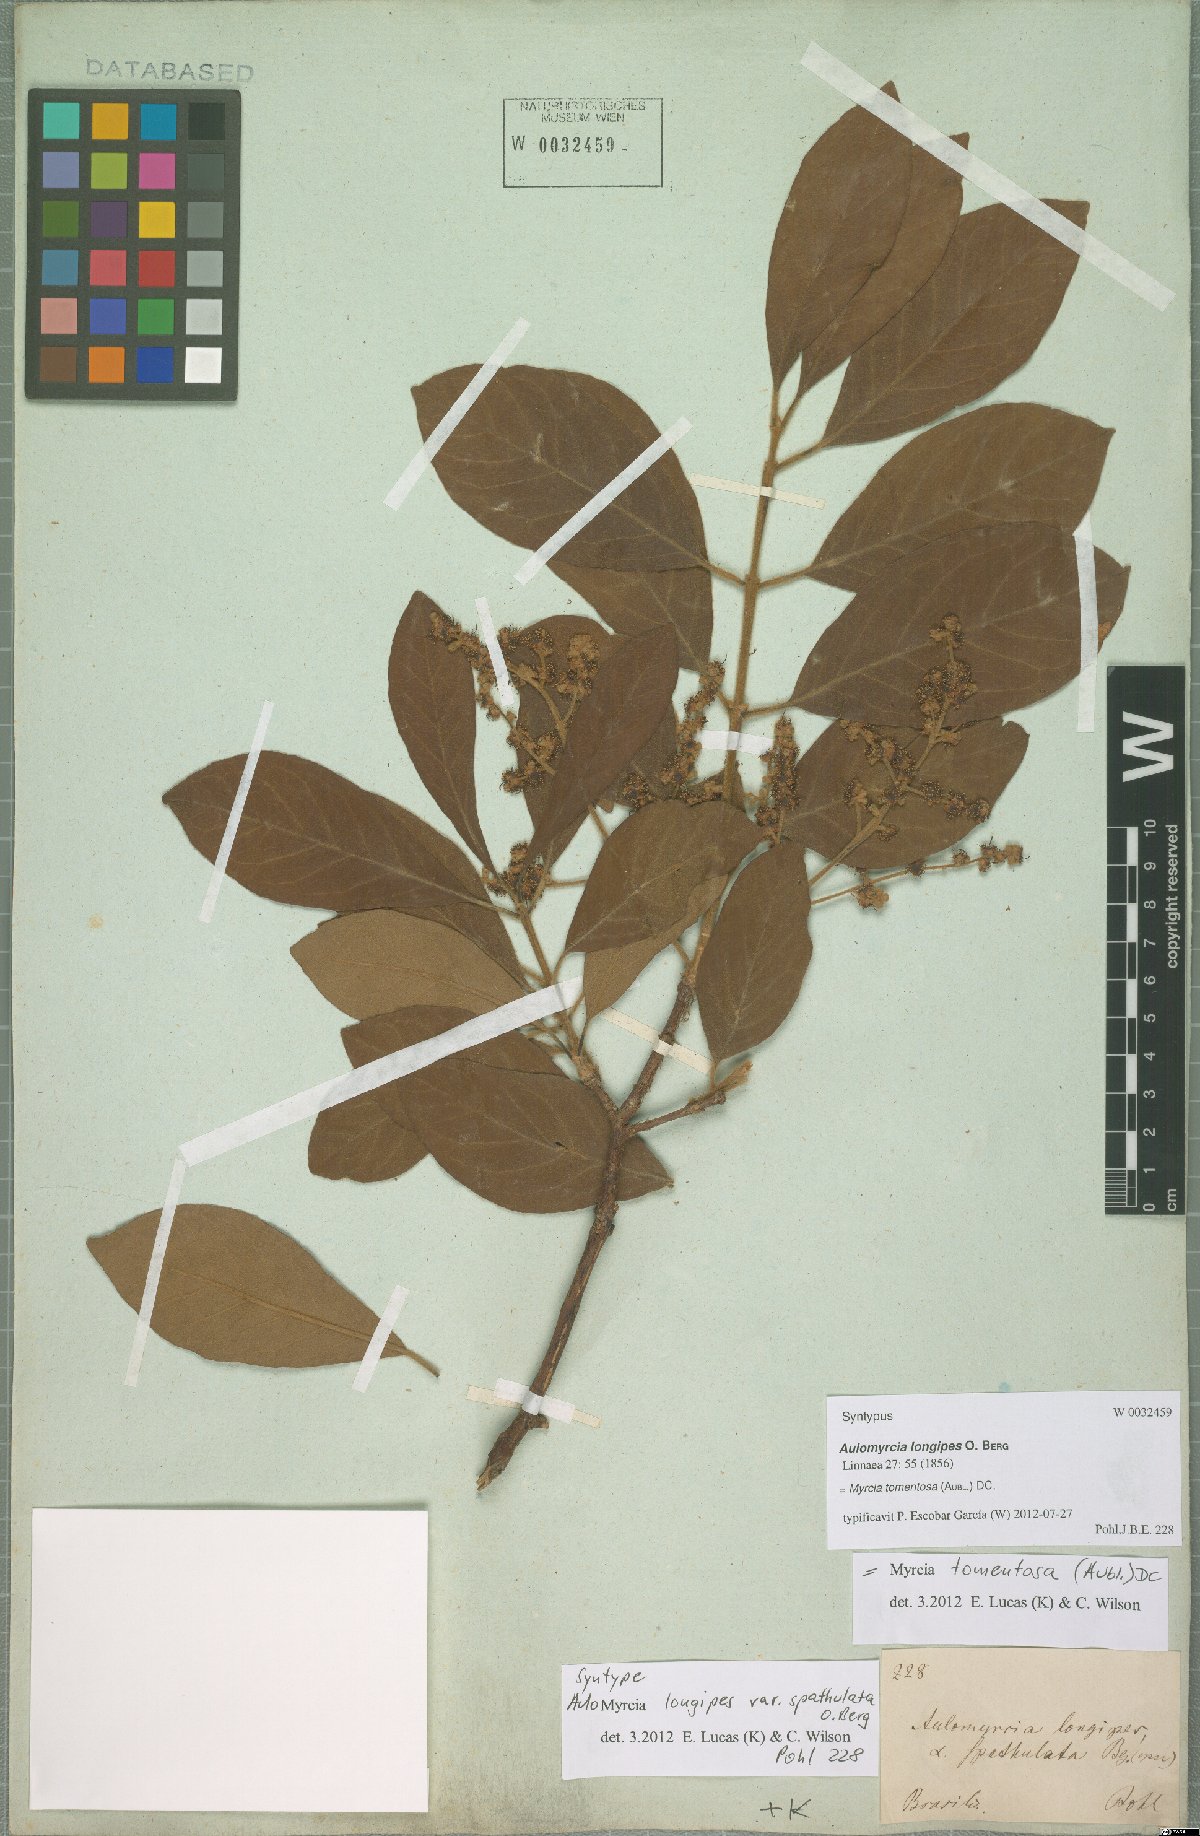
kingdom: Plantae
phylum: Tracheophyta
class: Magnoliopsida
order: Myrtales
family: Myrtaceae
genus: Myrcia
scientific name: Myrcia tomentosa
